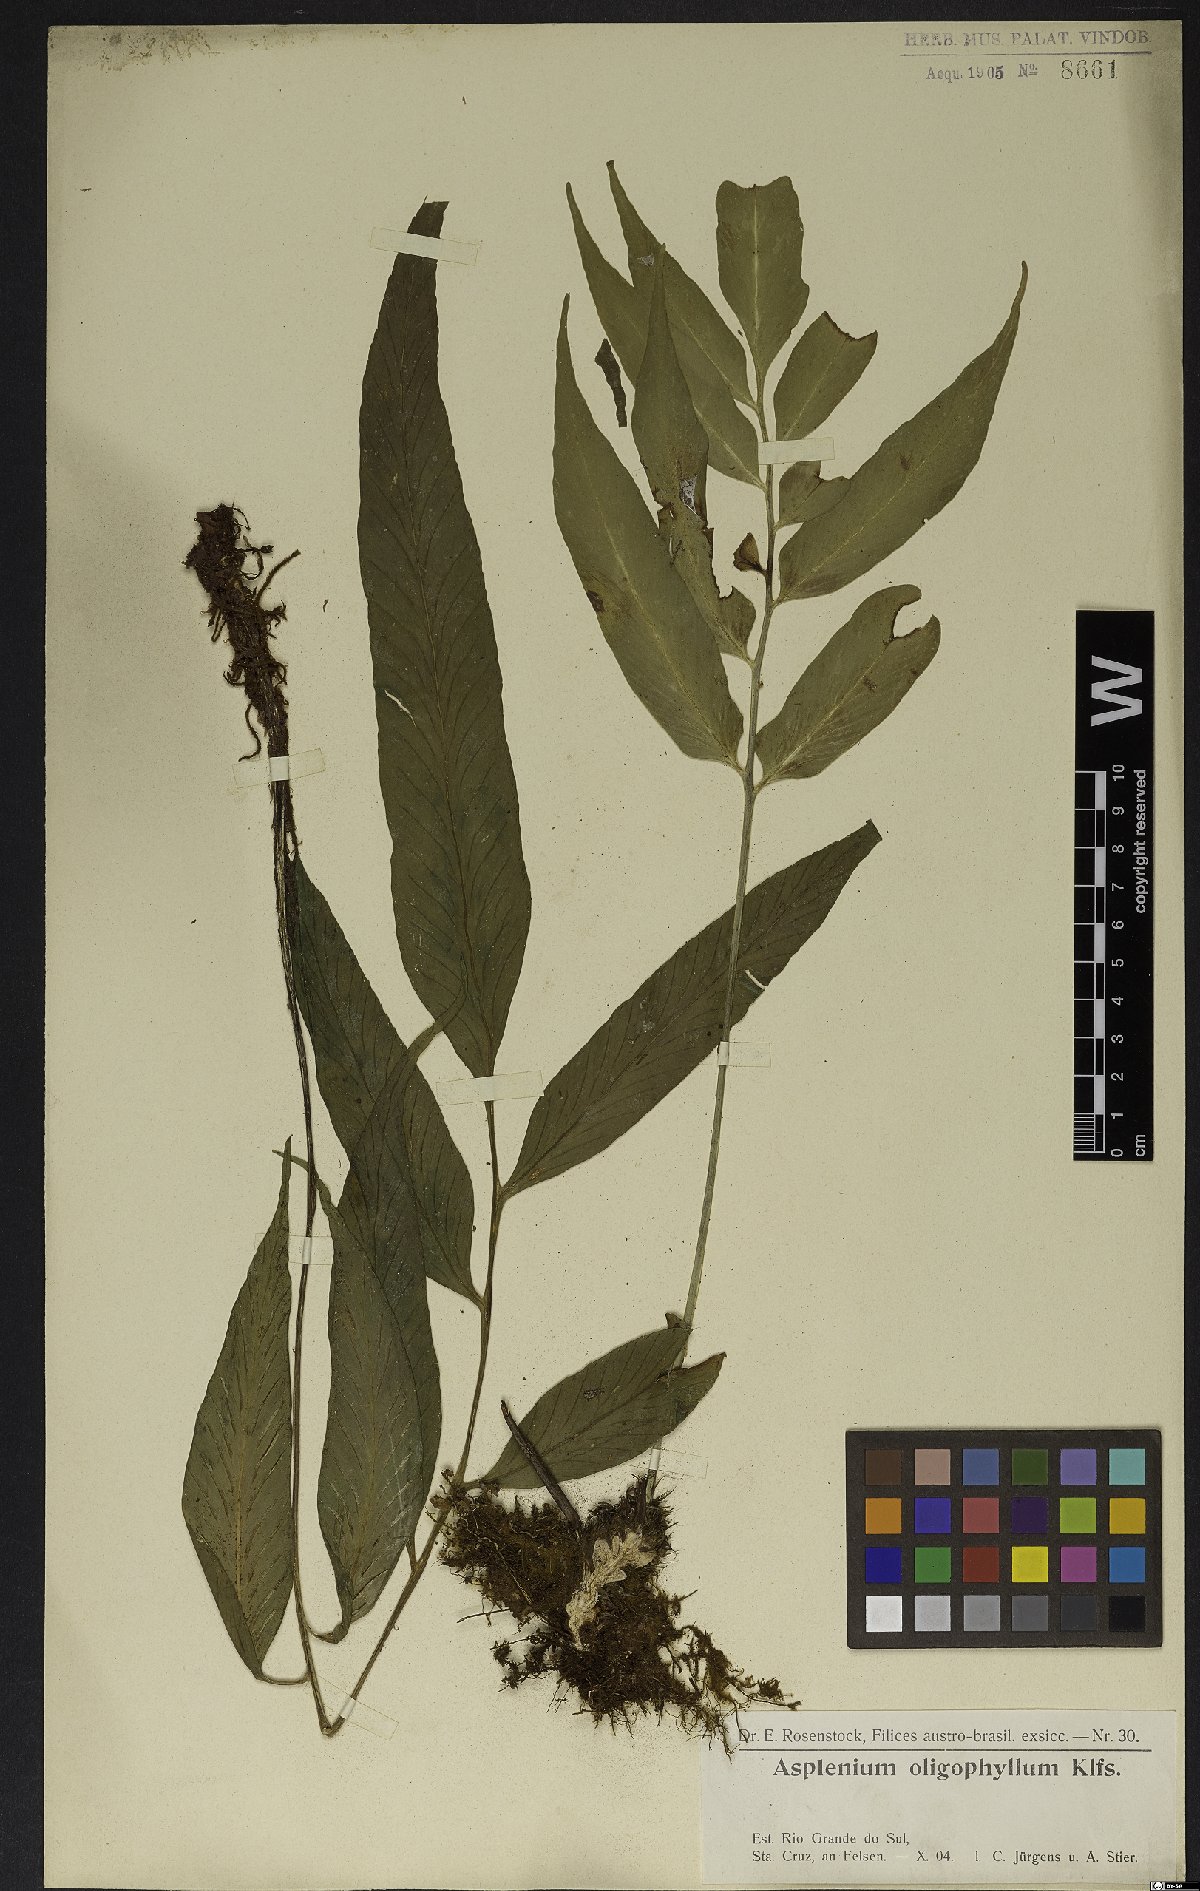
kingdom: Plantae
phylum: Tracheophyta
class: Polypodiopsida
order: Polypodiales
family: Aspleniaceae
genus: Asplenium
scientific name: Asplenium oligophyllum
